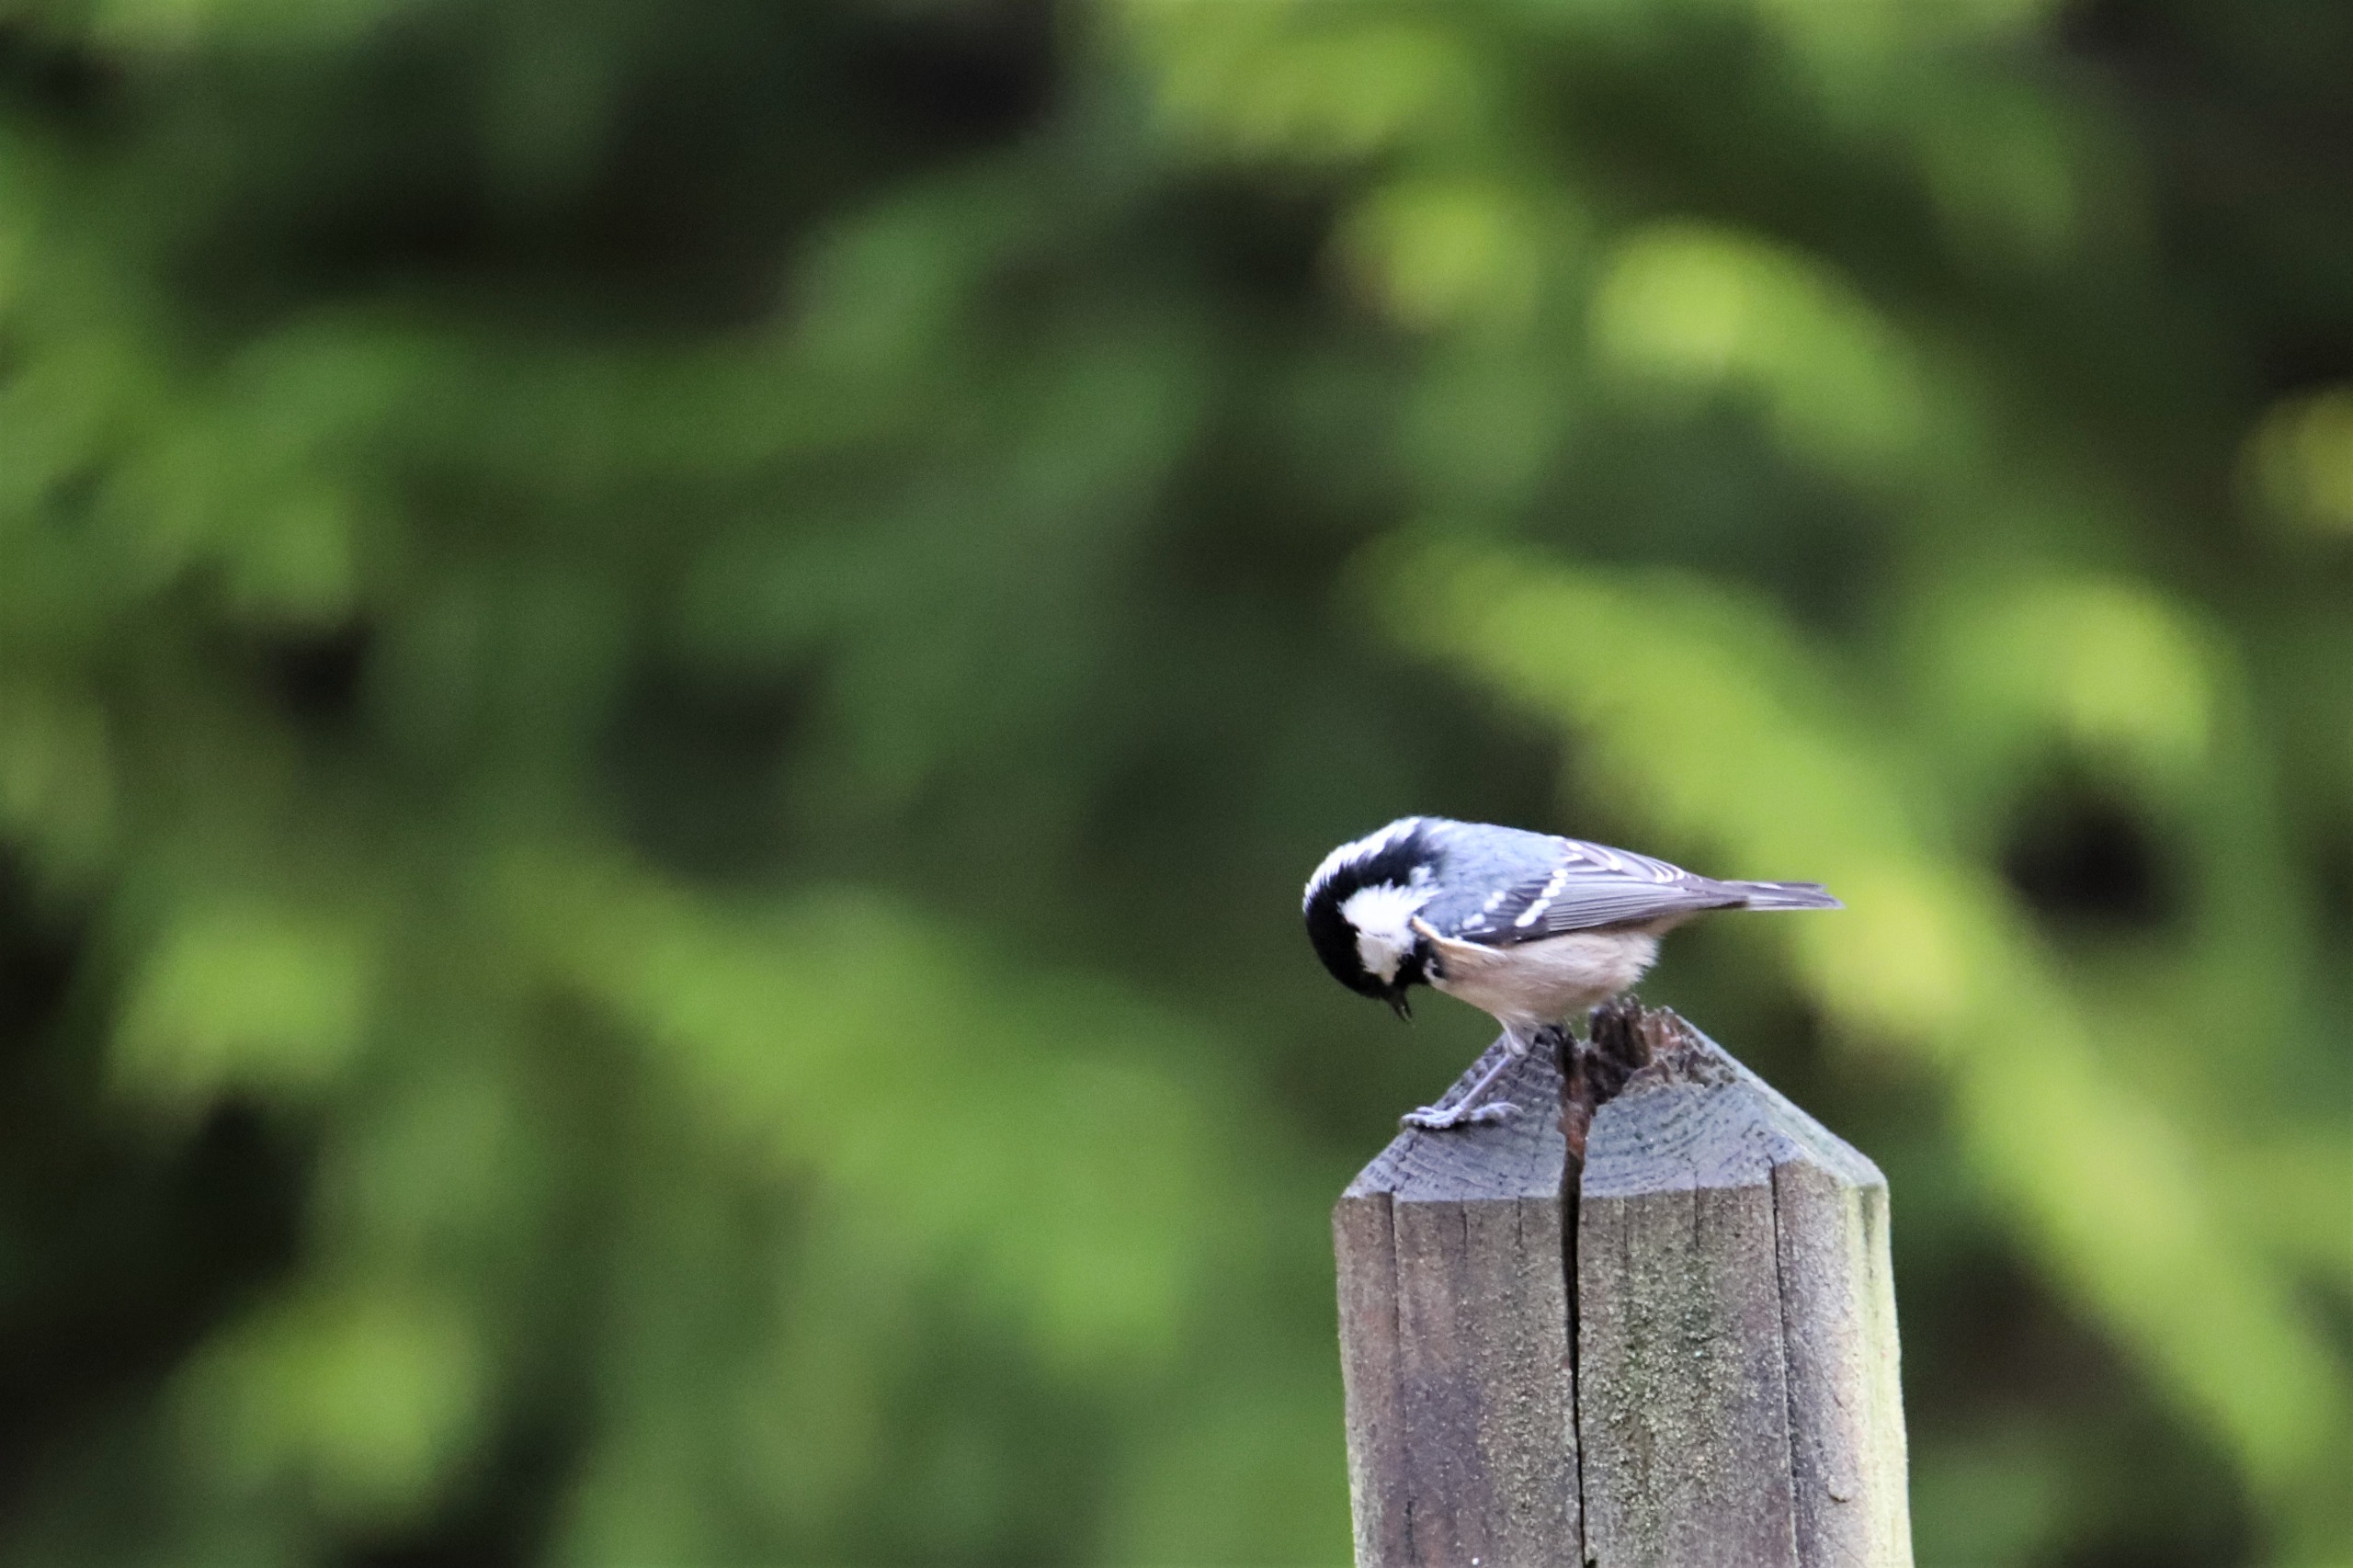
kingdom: Animalia
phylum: Chordata
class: Aves
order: Passeriformes
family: Paridae
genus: Periparus
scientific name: Periparus ater
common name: Sortmejse
